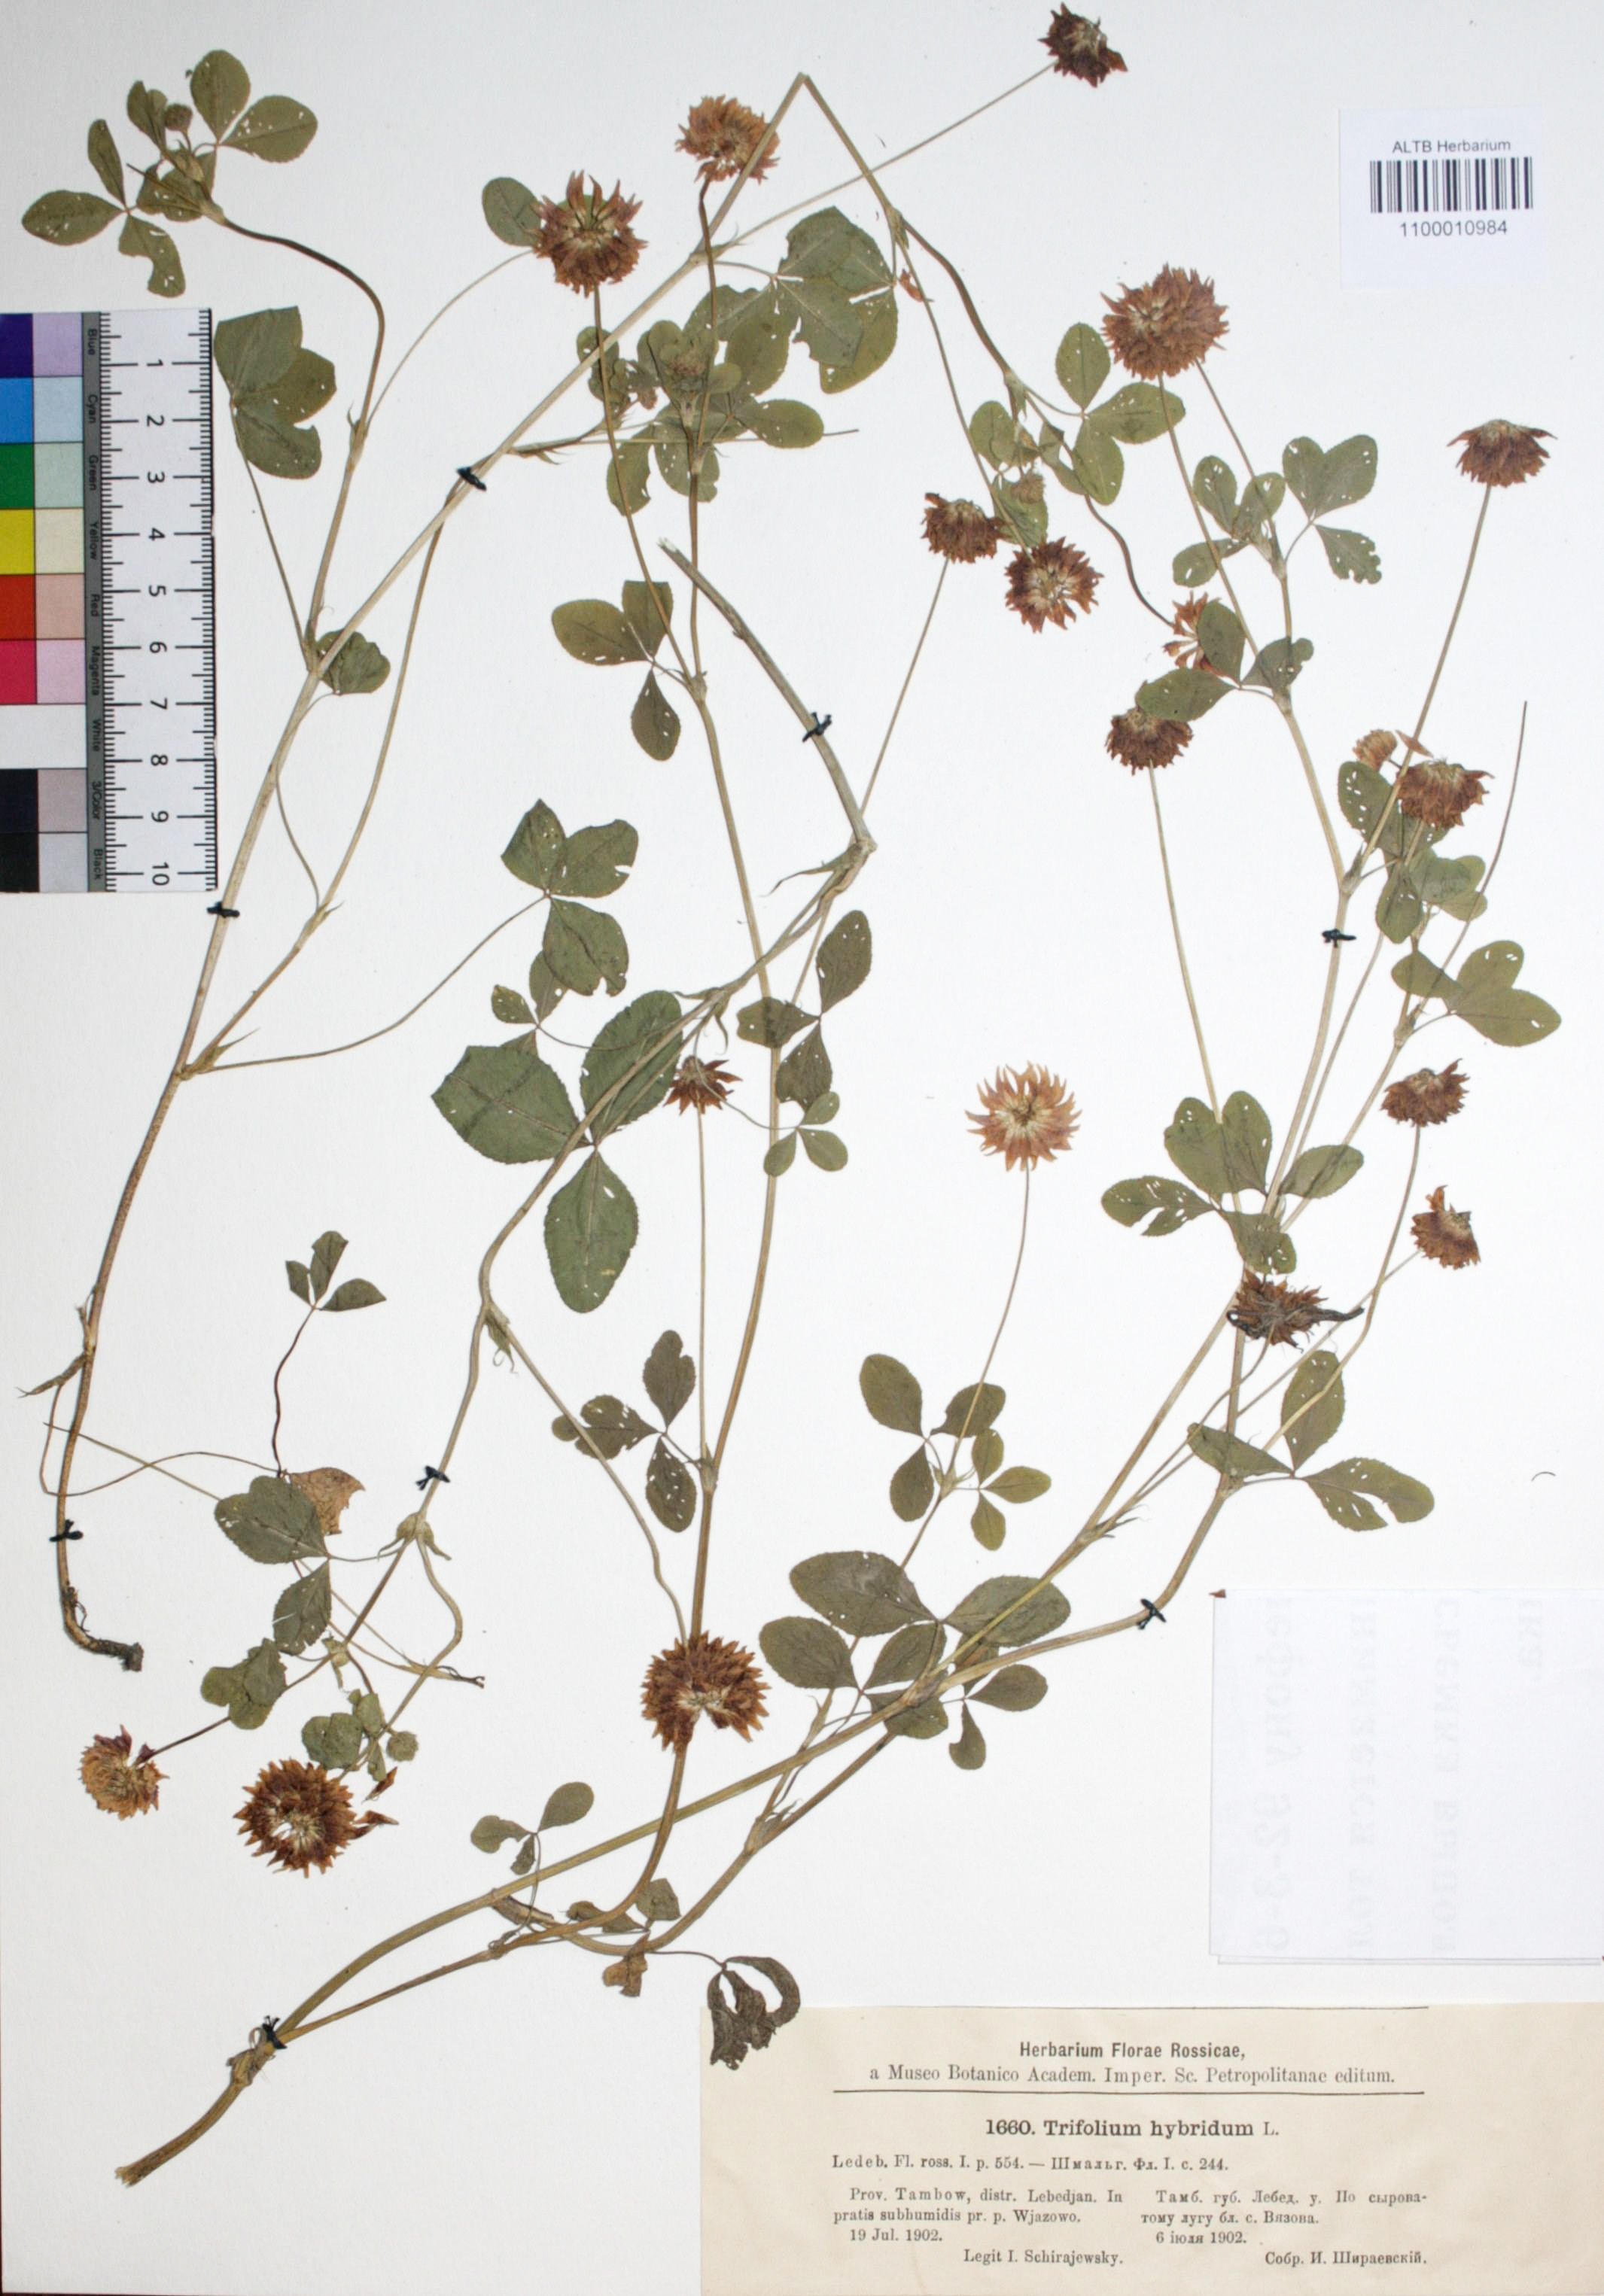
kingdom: Plantae
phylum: Tracheophyta
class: Magnoliopsida
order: Fabales
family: Fabaceae
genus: Trifolium
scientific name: Trifolium hybridum
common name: Alsike clover
